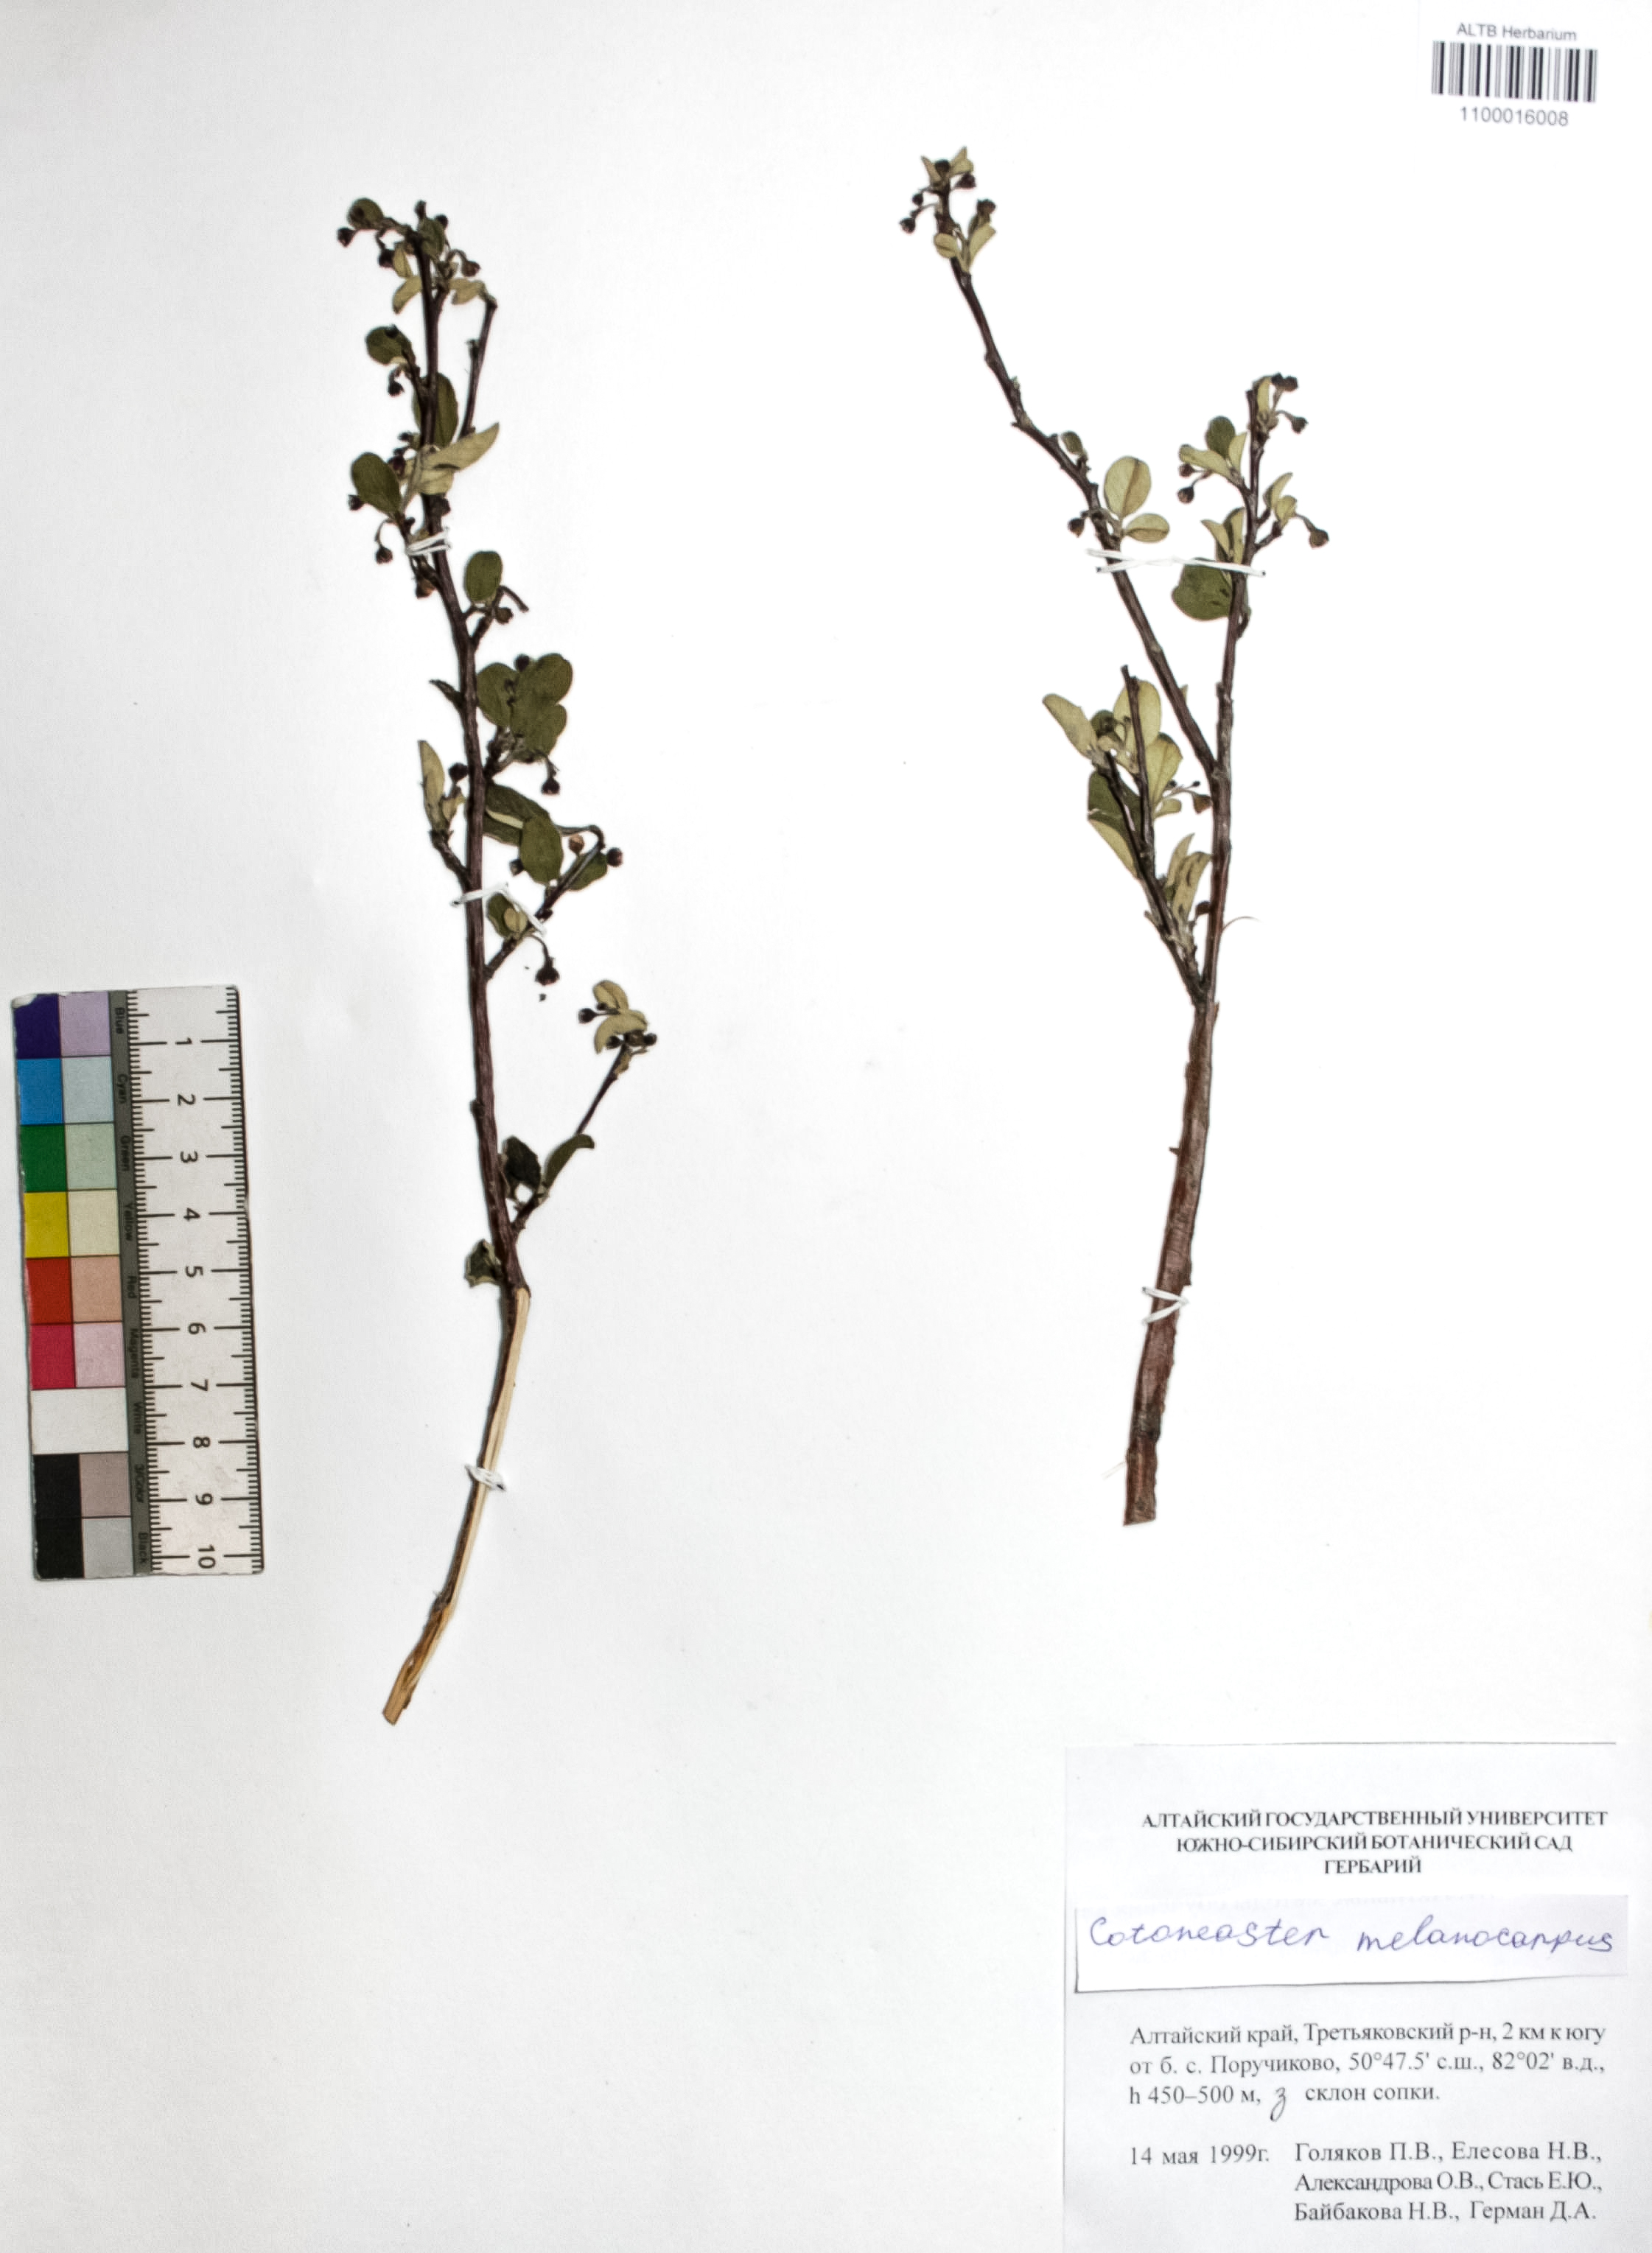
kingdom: Plantae
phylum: Tracheophyta
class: Magnoliopsida
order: Rosales
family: Rosaceae
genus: Cotoneaster
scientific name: Cotoneaster niger
